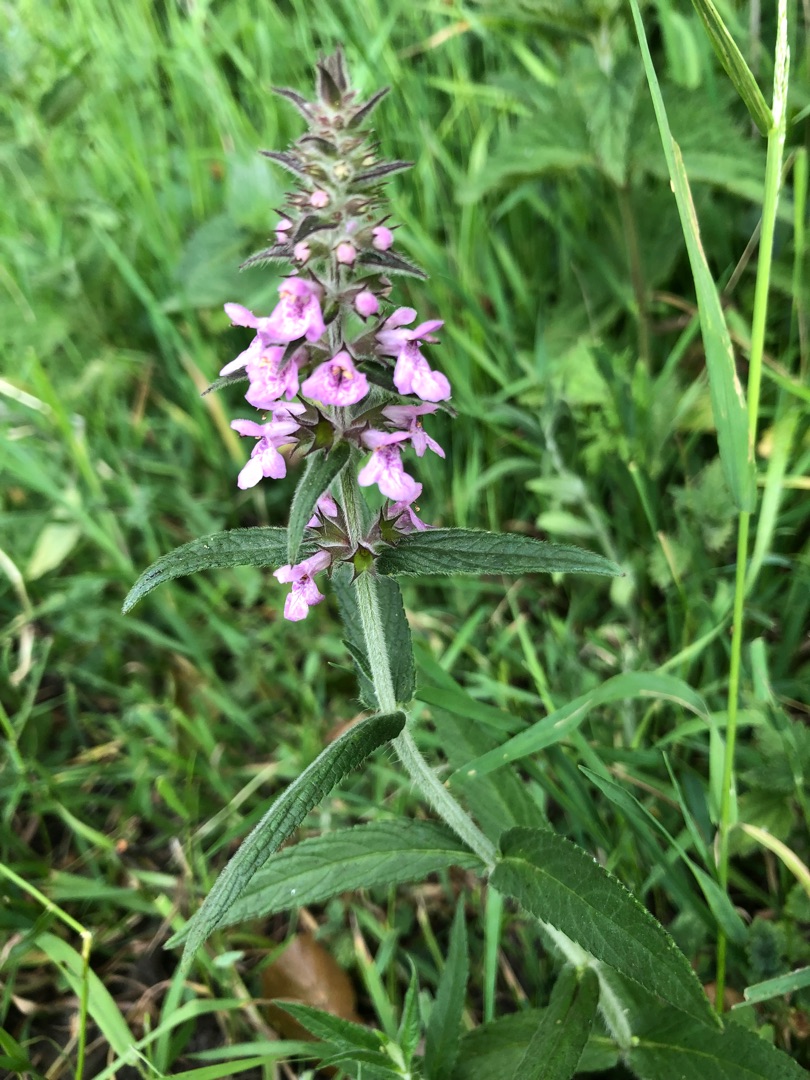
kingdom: Plantae
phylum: Tracheophyta
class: Magnoliopsida
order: Lamiales
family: Lamiaceae
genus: Stachys
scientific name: Stachys palustris
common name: Kær-galtetand
